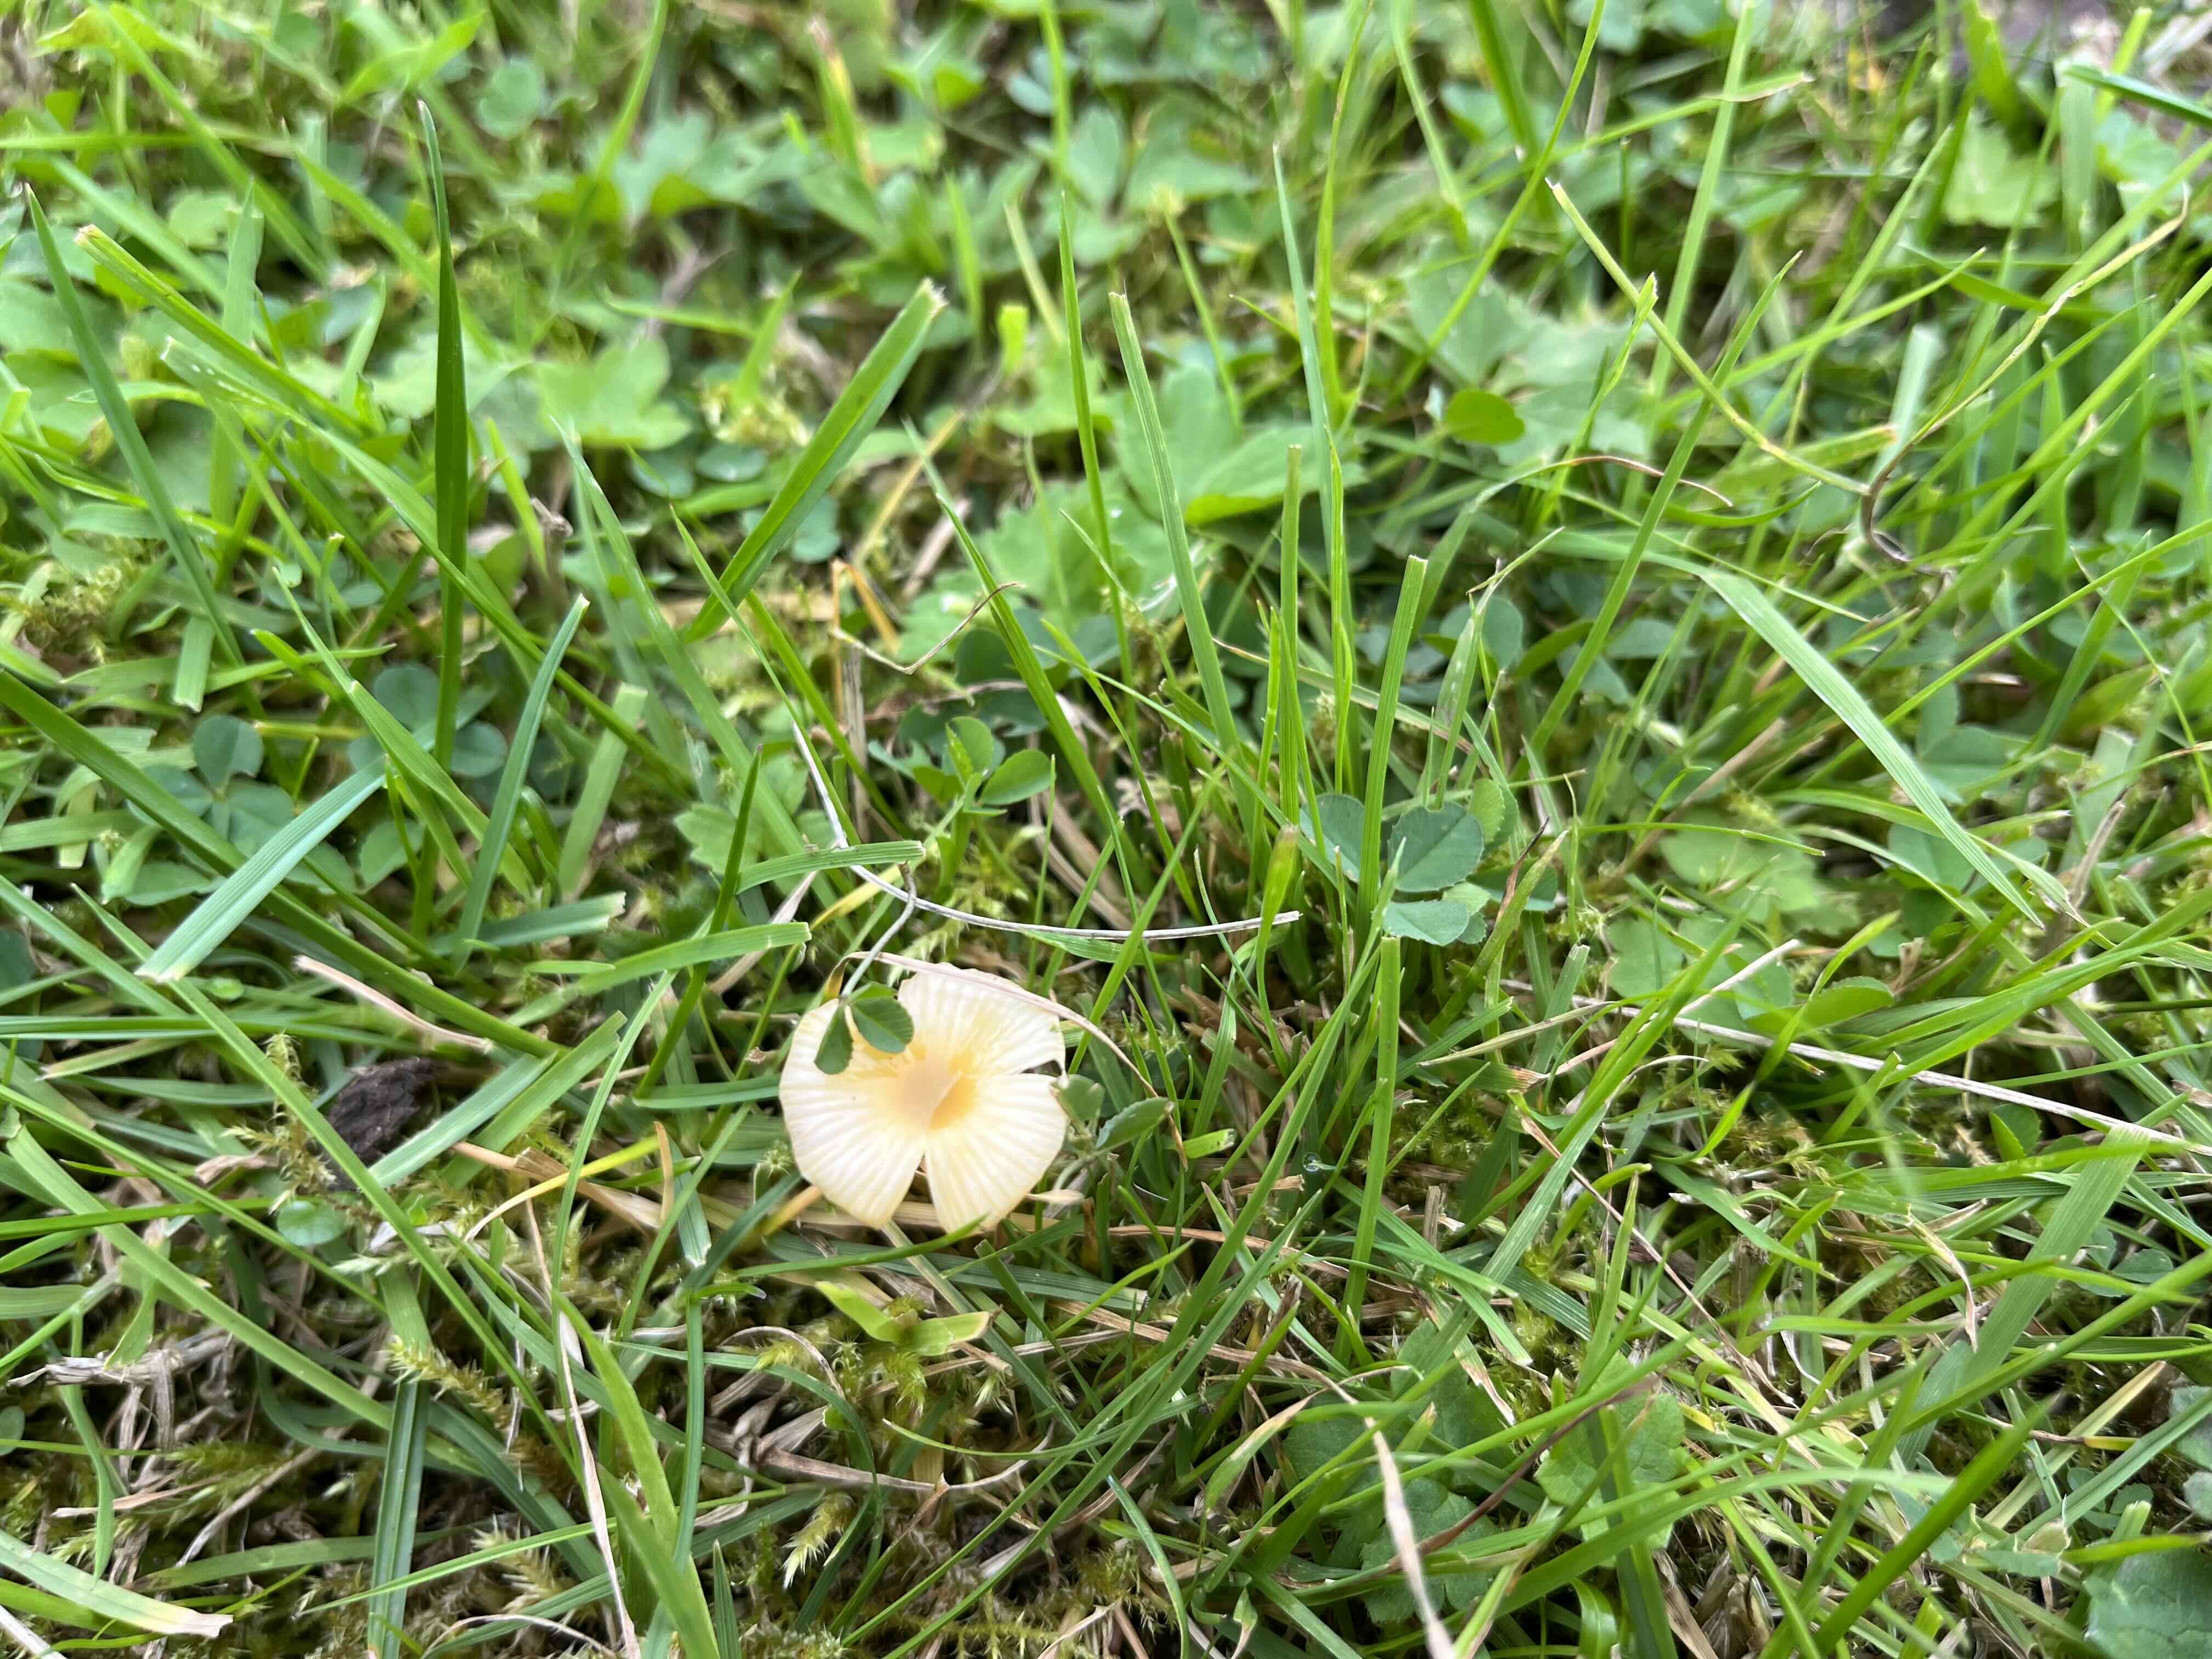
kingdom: Fungi
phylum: Basidiomycota
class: Agaricomycetes
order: Agaricales
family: Hygrophoraceae
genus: Hygrocybe
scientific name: Hygrocybe glutinipes
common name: slimstokket vokshat
